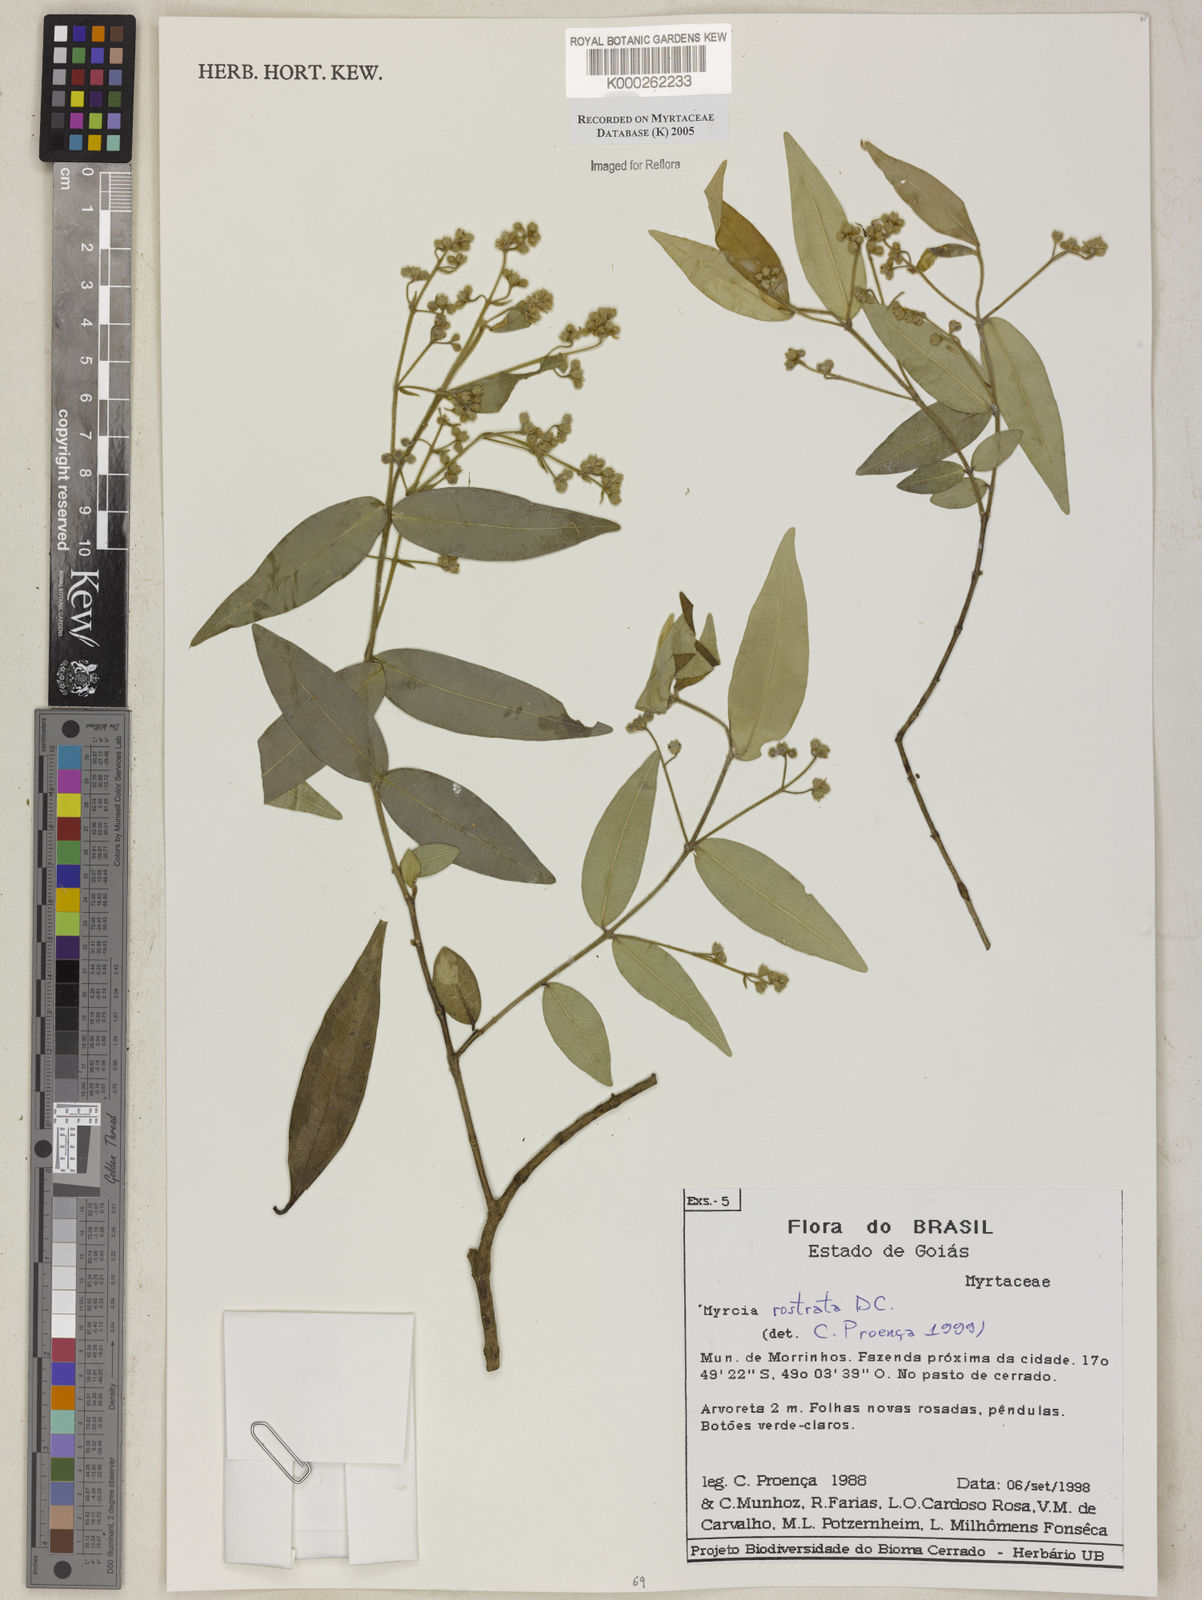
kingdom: Plantae
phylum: Tracheophyta
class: Magnoliopsida
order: Myrtales
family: Myrtaceae
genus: Myrcia
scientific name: Myrcia splendens
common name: Surinam cherry
